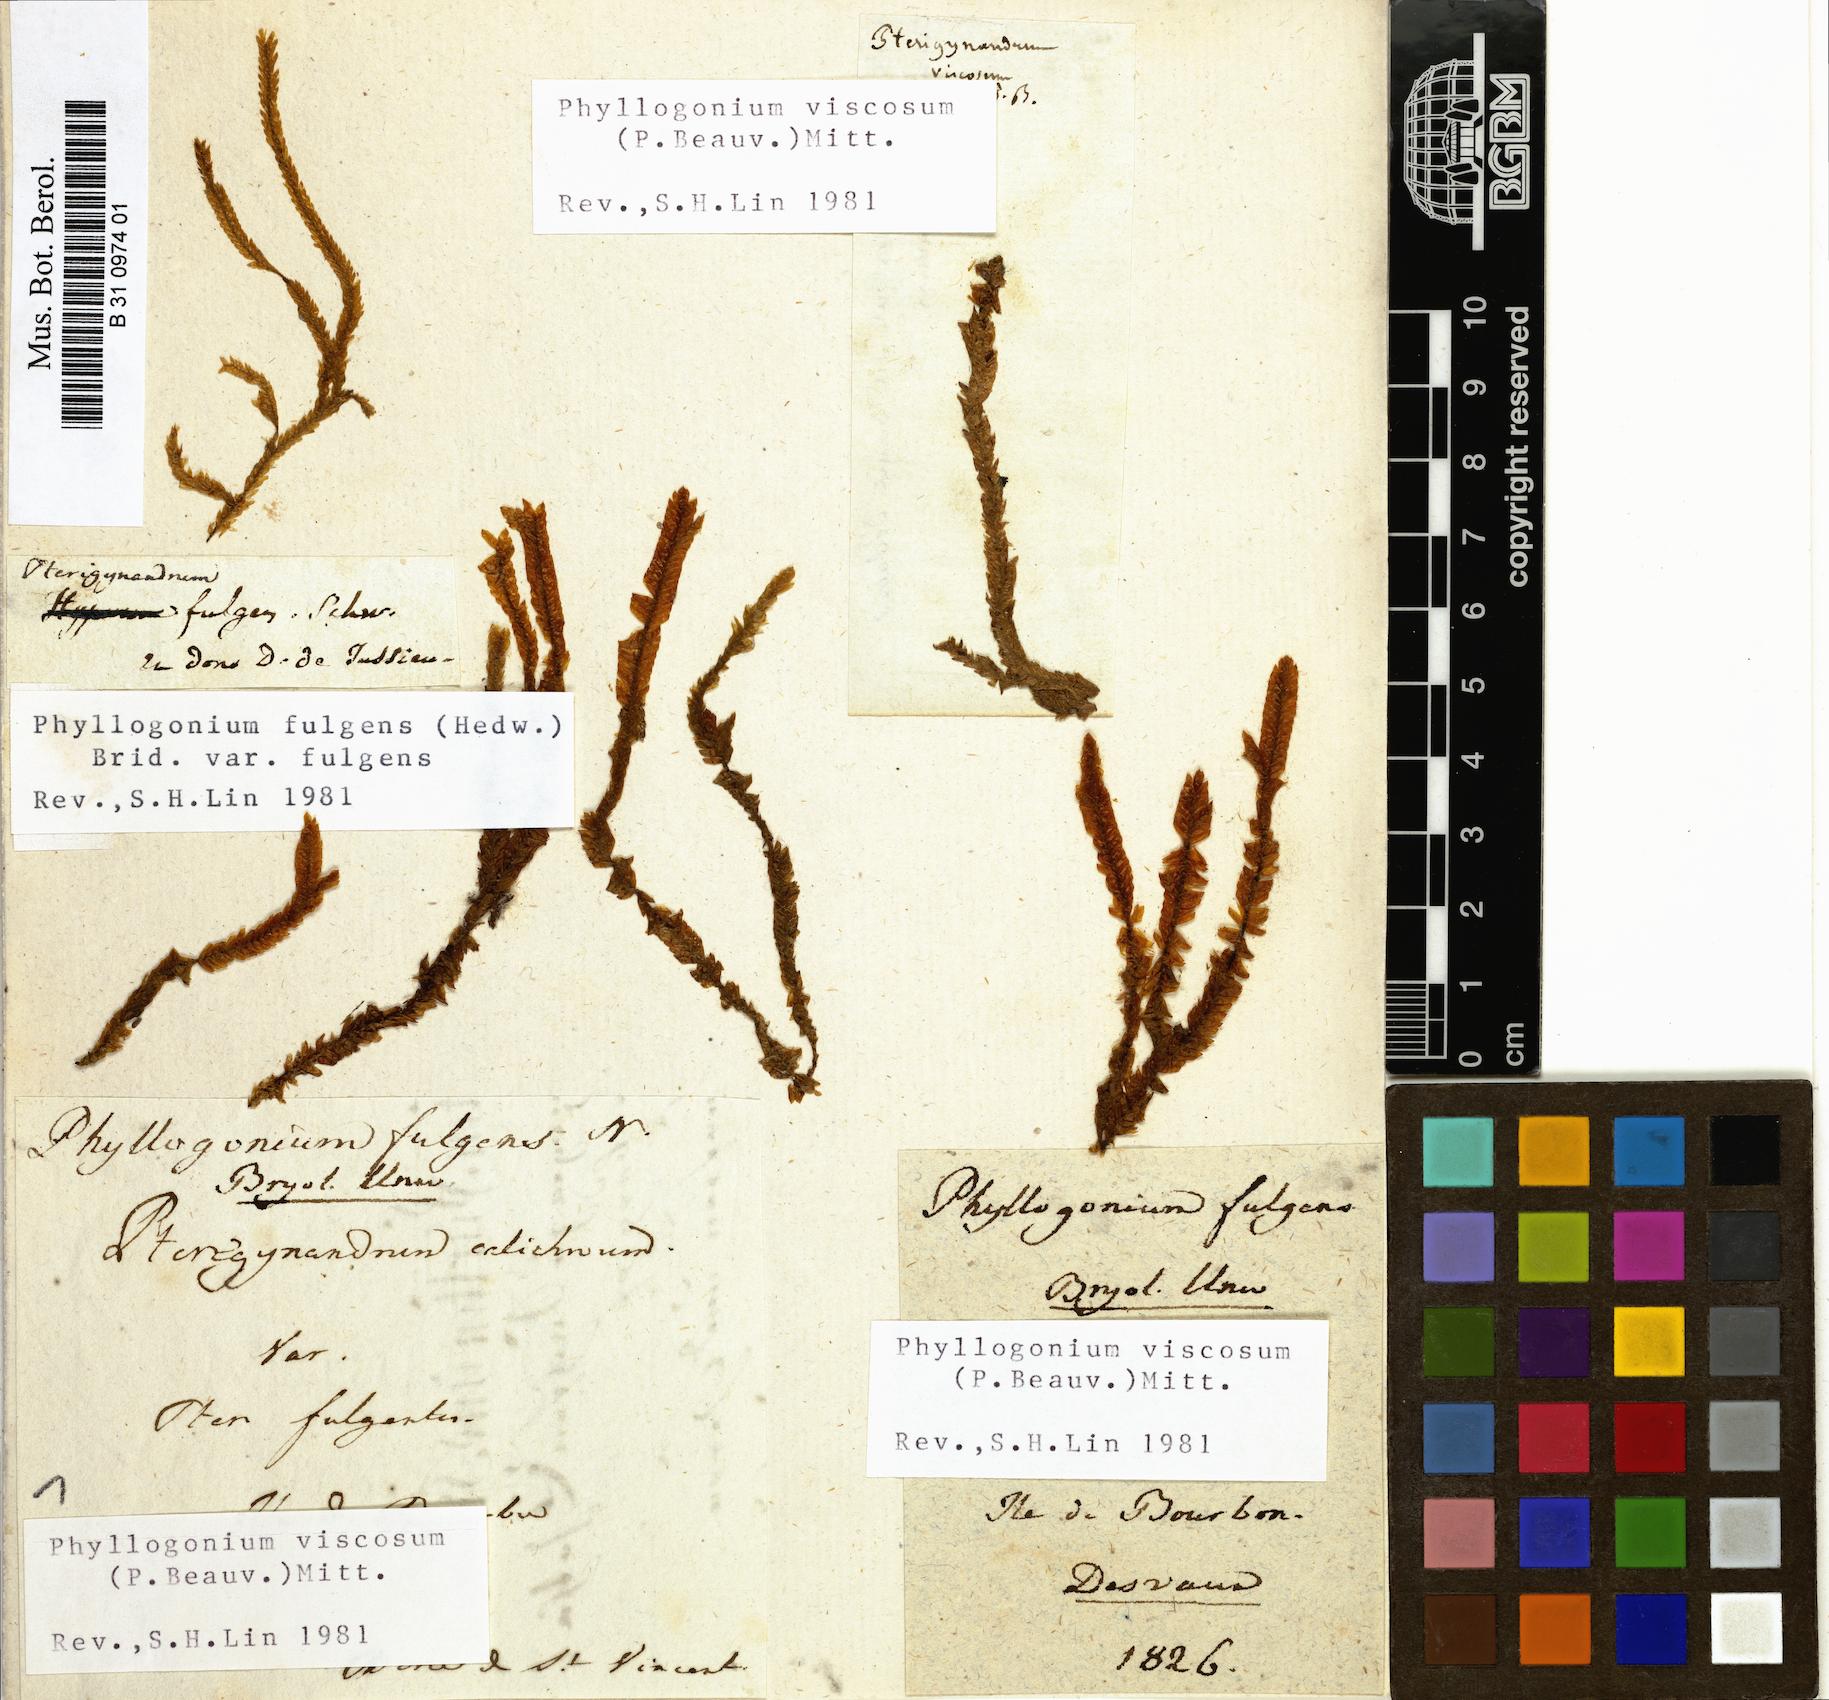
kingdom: Plantae
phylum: Bryophyta
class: Bryopsida
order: Hypnales
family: Phyllogoniaceae
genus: Phyllogonium
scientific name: Phyllogonium fulgens
